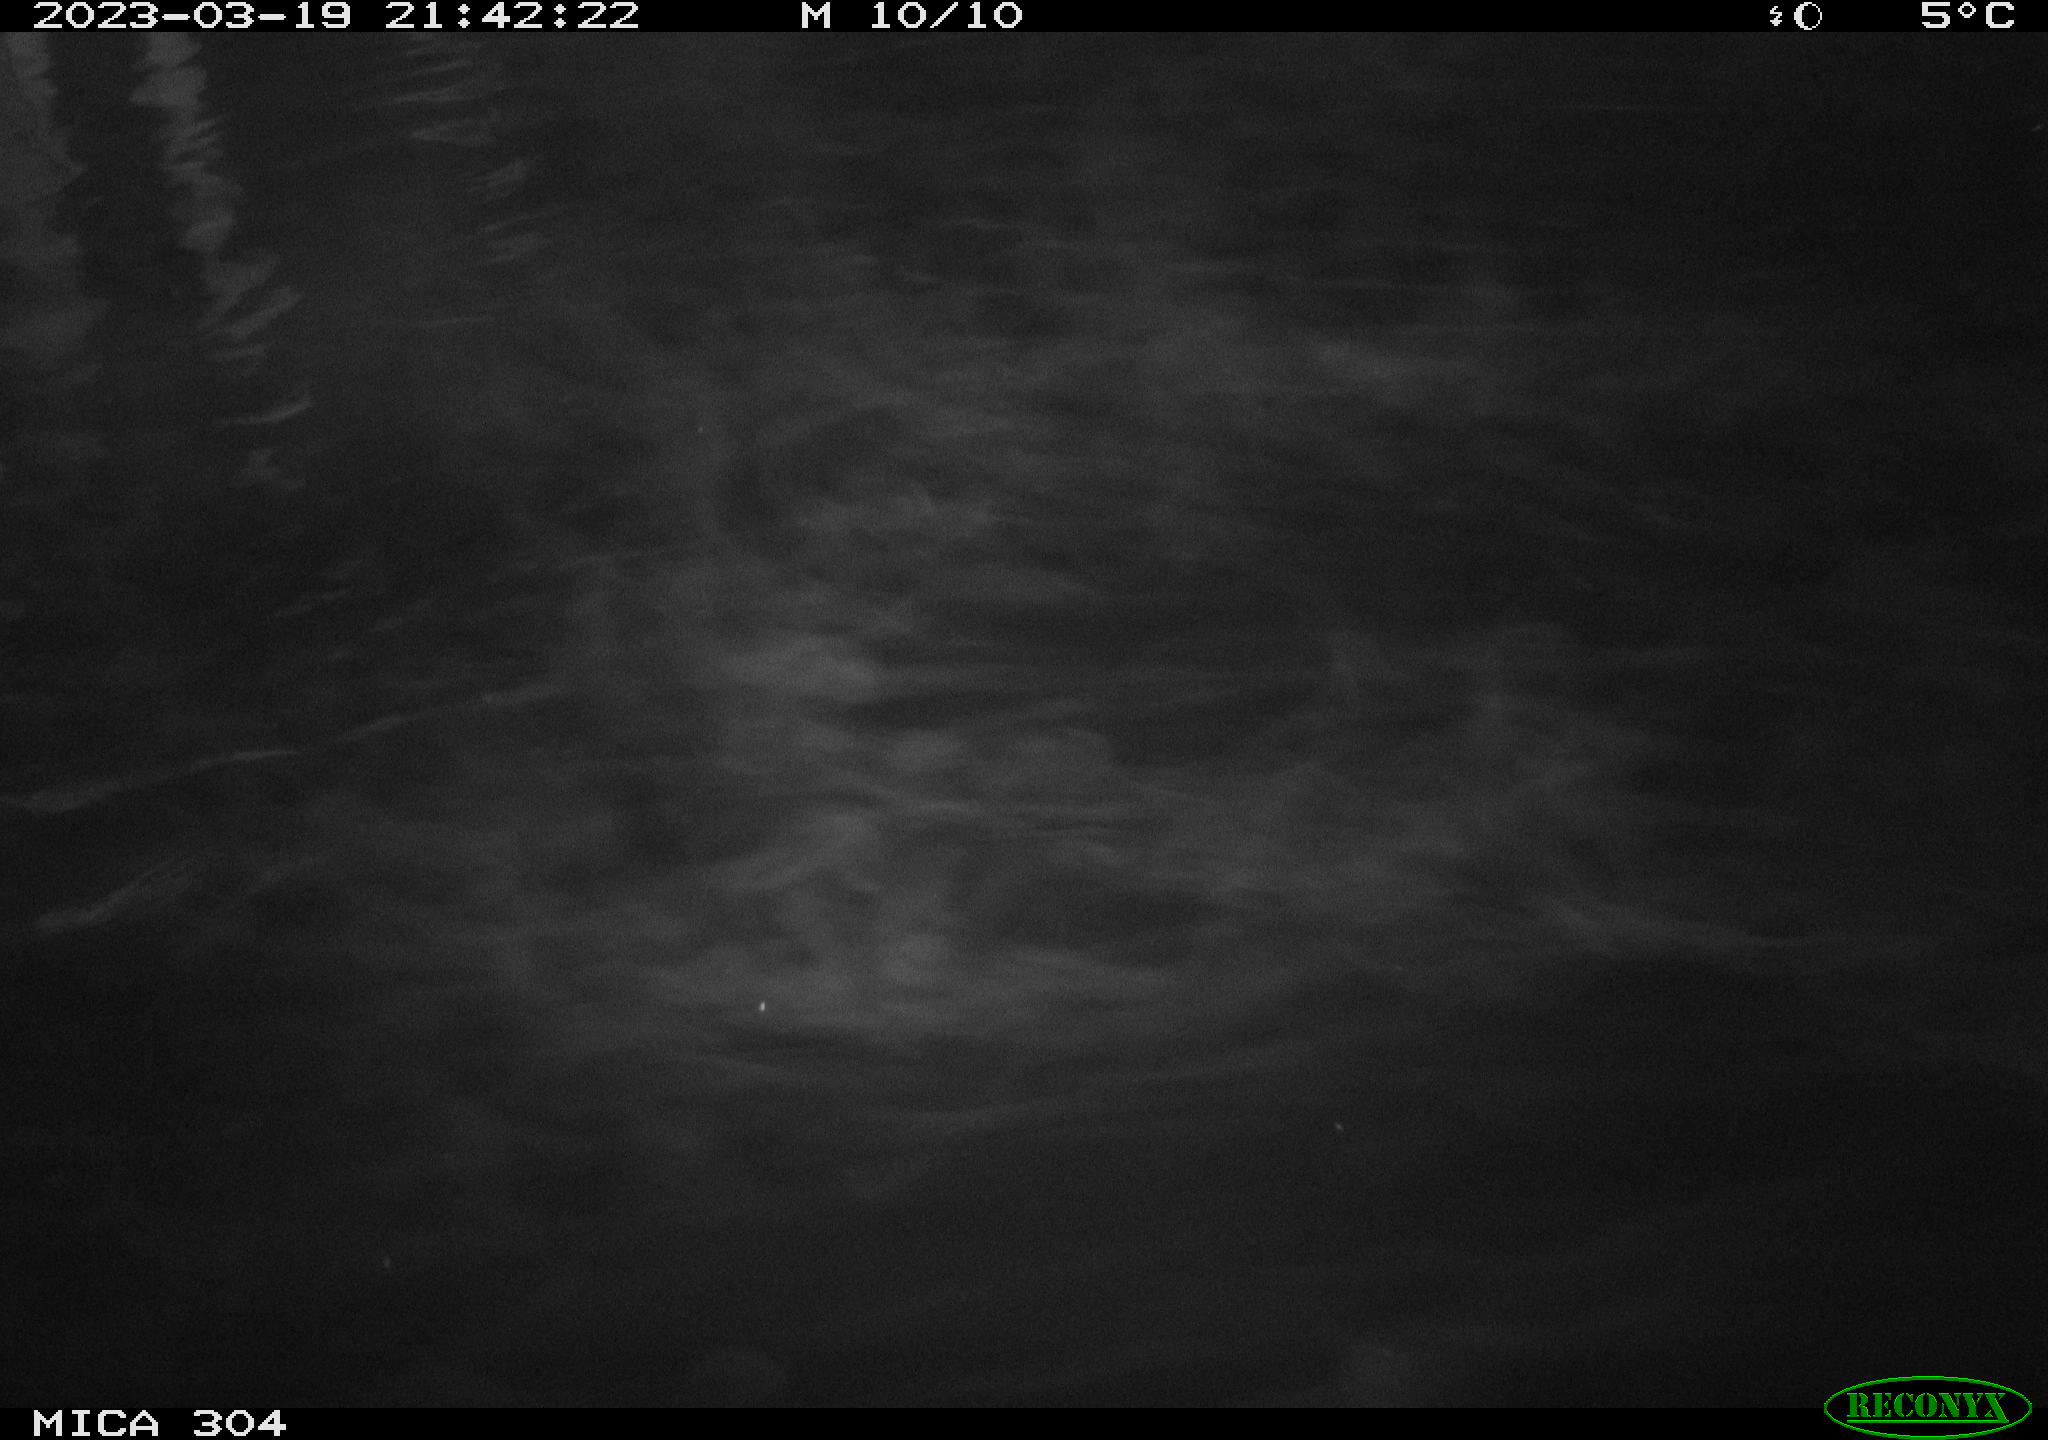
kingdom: Animalia
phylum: Chordata
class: Mammalia
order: Rodentia
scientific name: Rodentia
